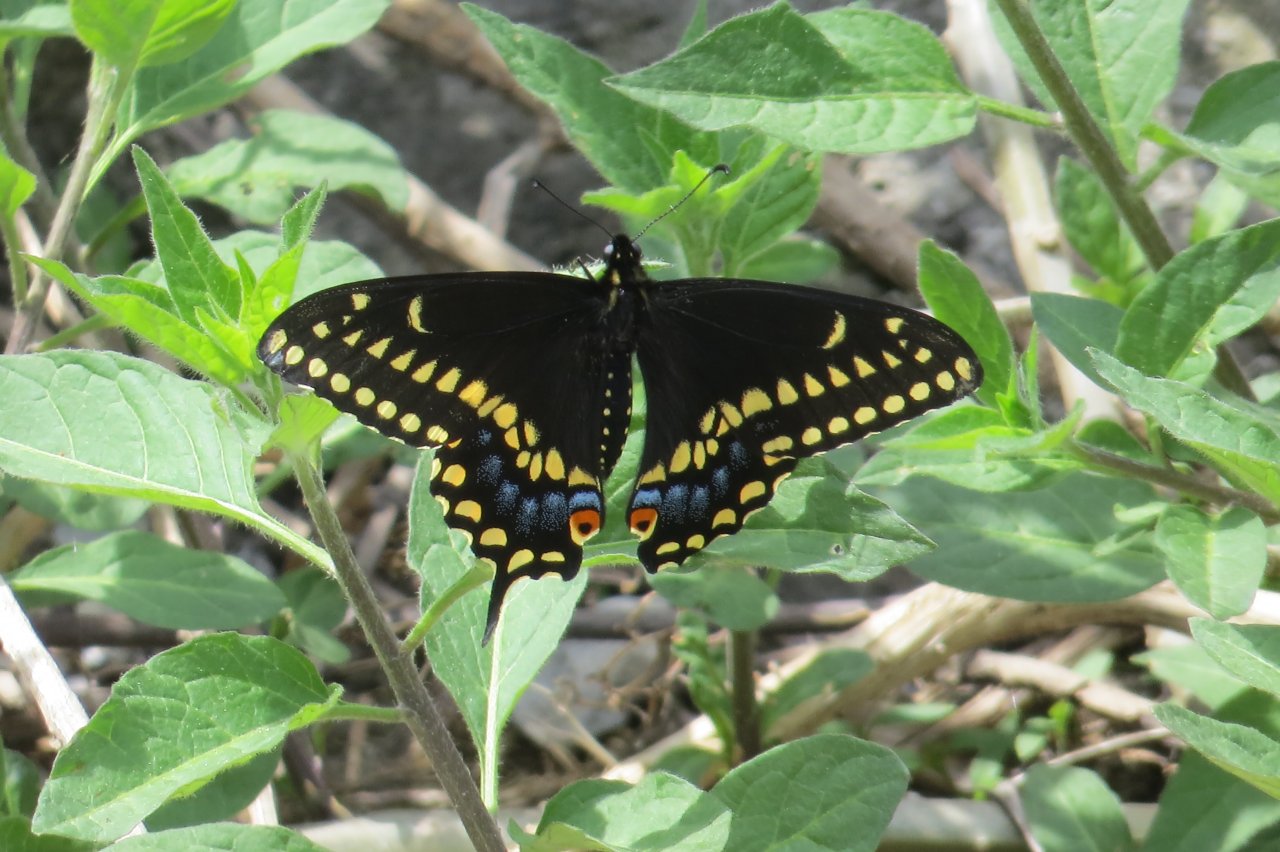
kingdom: Animalia
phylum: Arthropoda
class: Insecta
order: Lepidoptera
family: Papilionidae
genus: Papilio
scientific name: Papilio polyxenes
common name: Black Swallowtail
